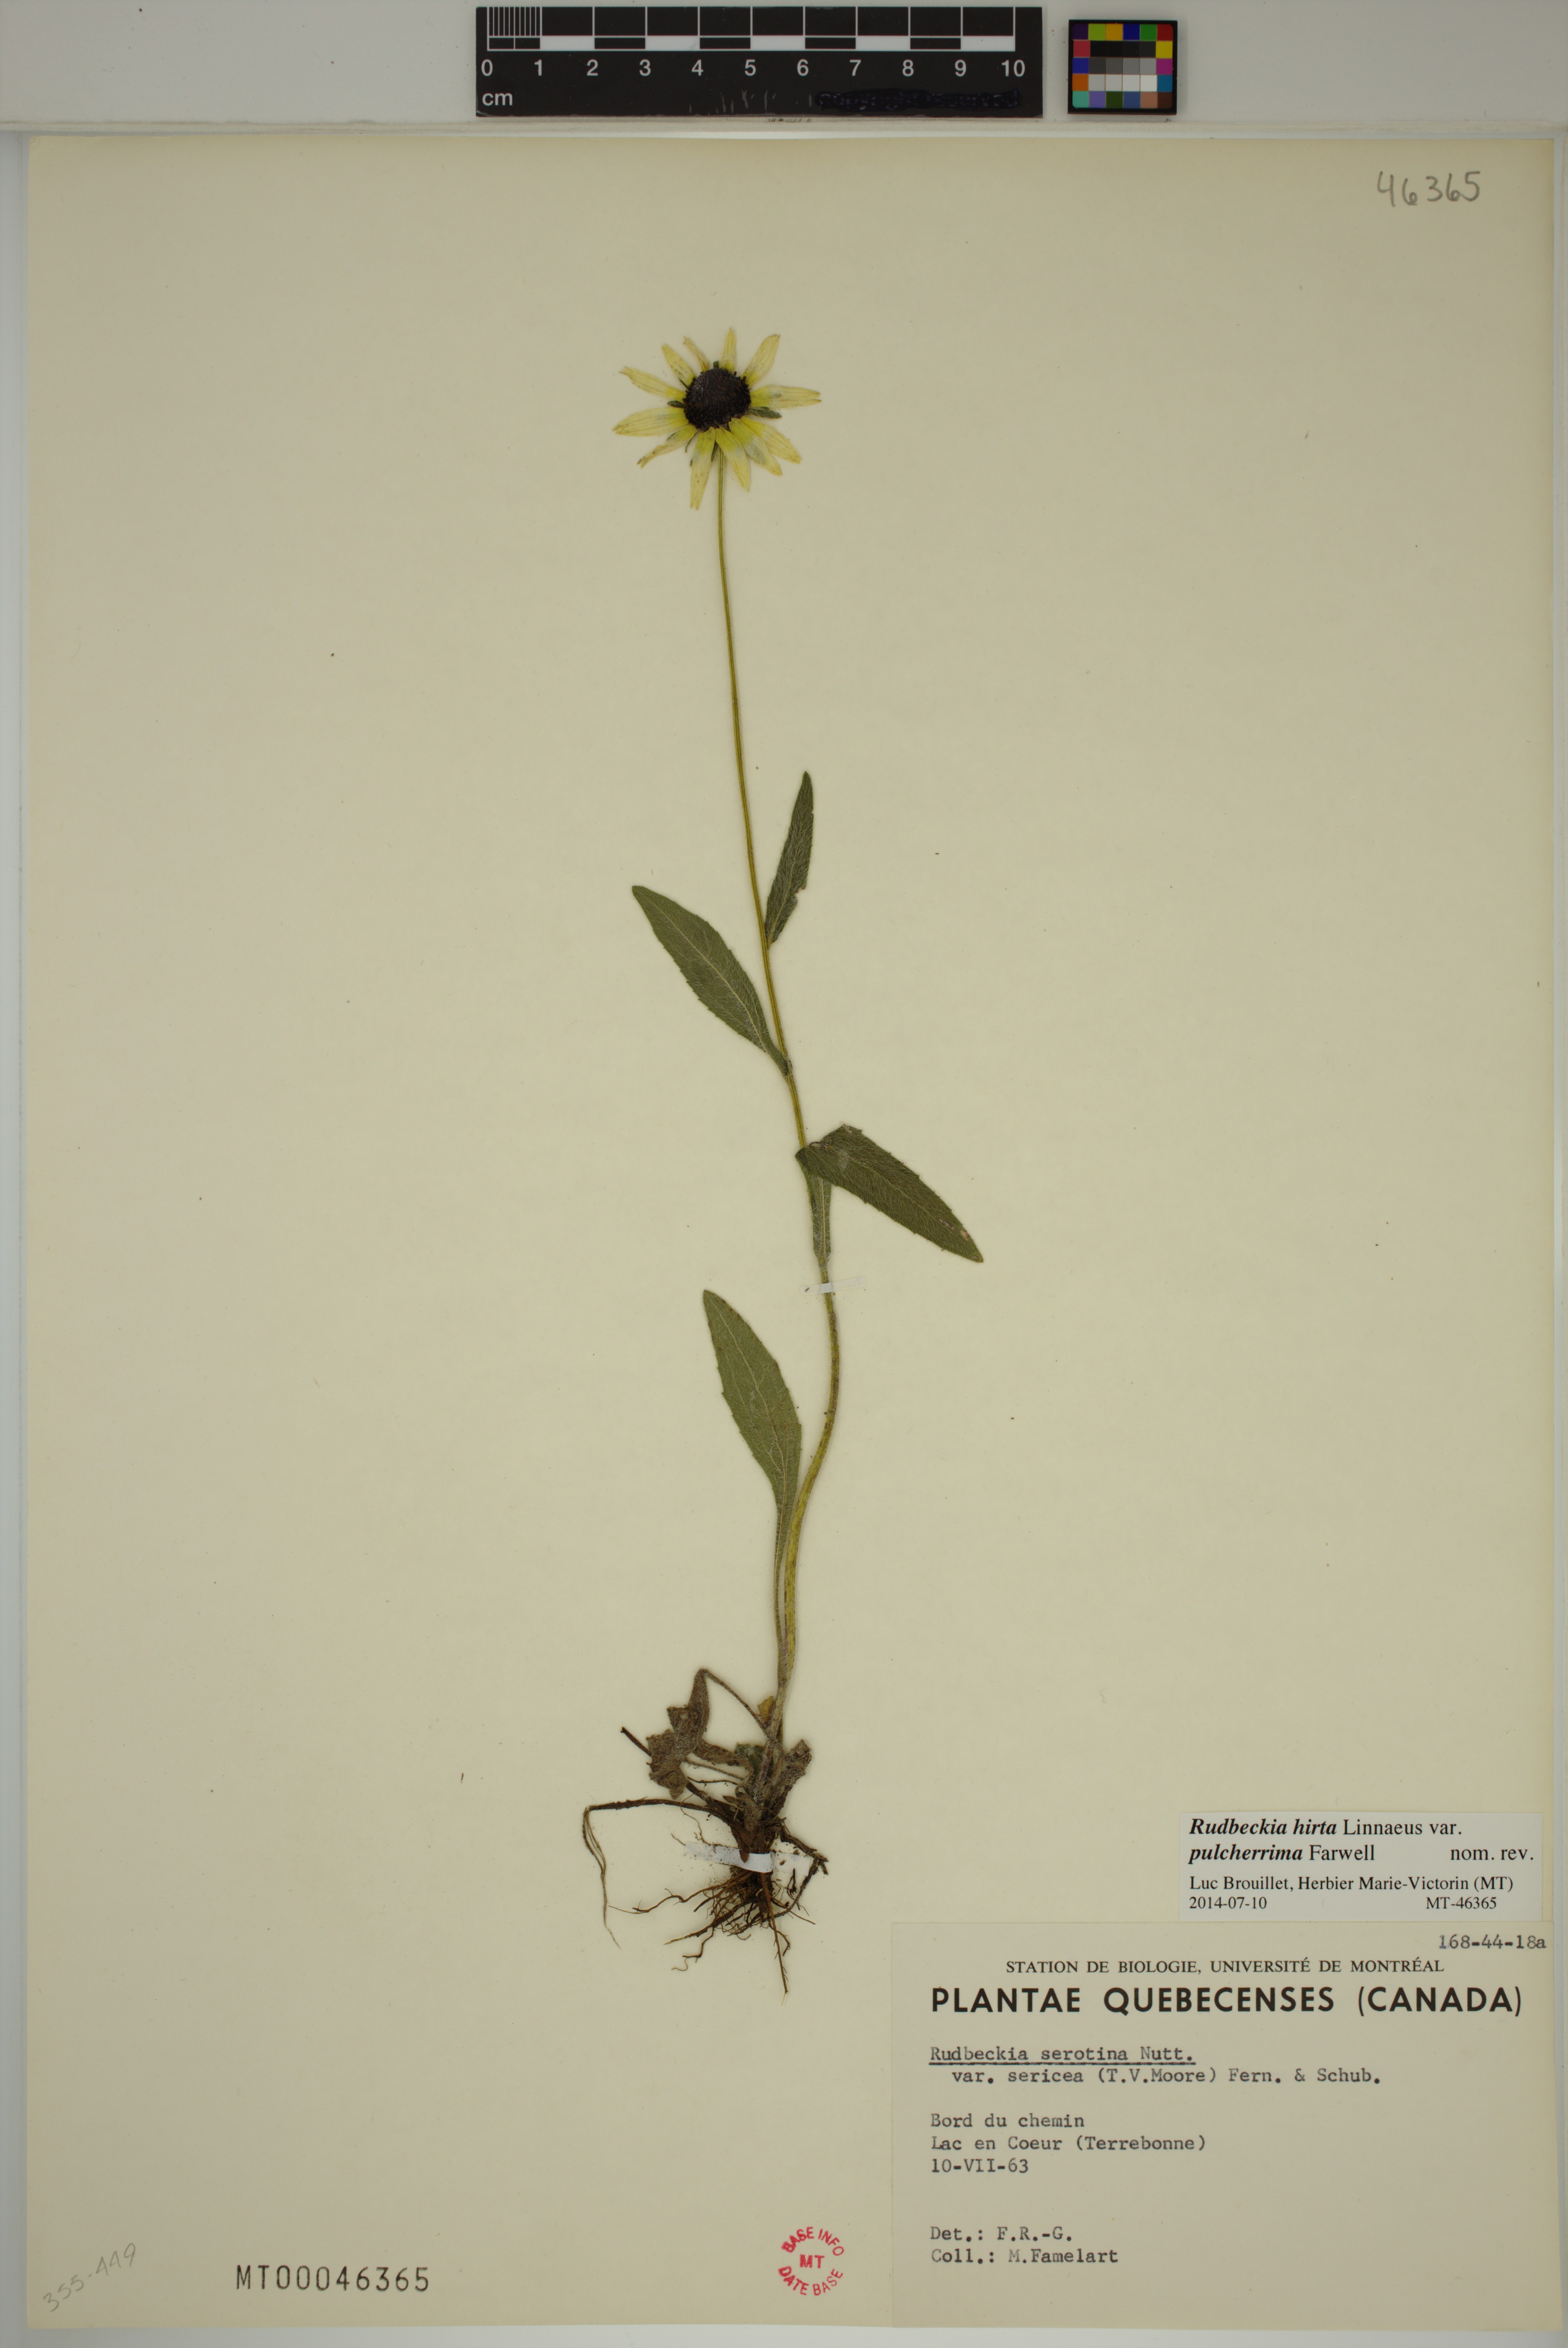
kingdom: Plantae
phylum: Tracheophyta
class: Magnoliopsida
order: Asterales
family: Asteraceae
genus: Rudbeckia
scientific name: Rudbeckia hirta
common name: Black-eyed-susan
